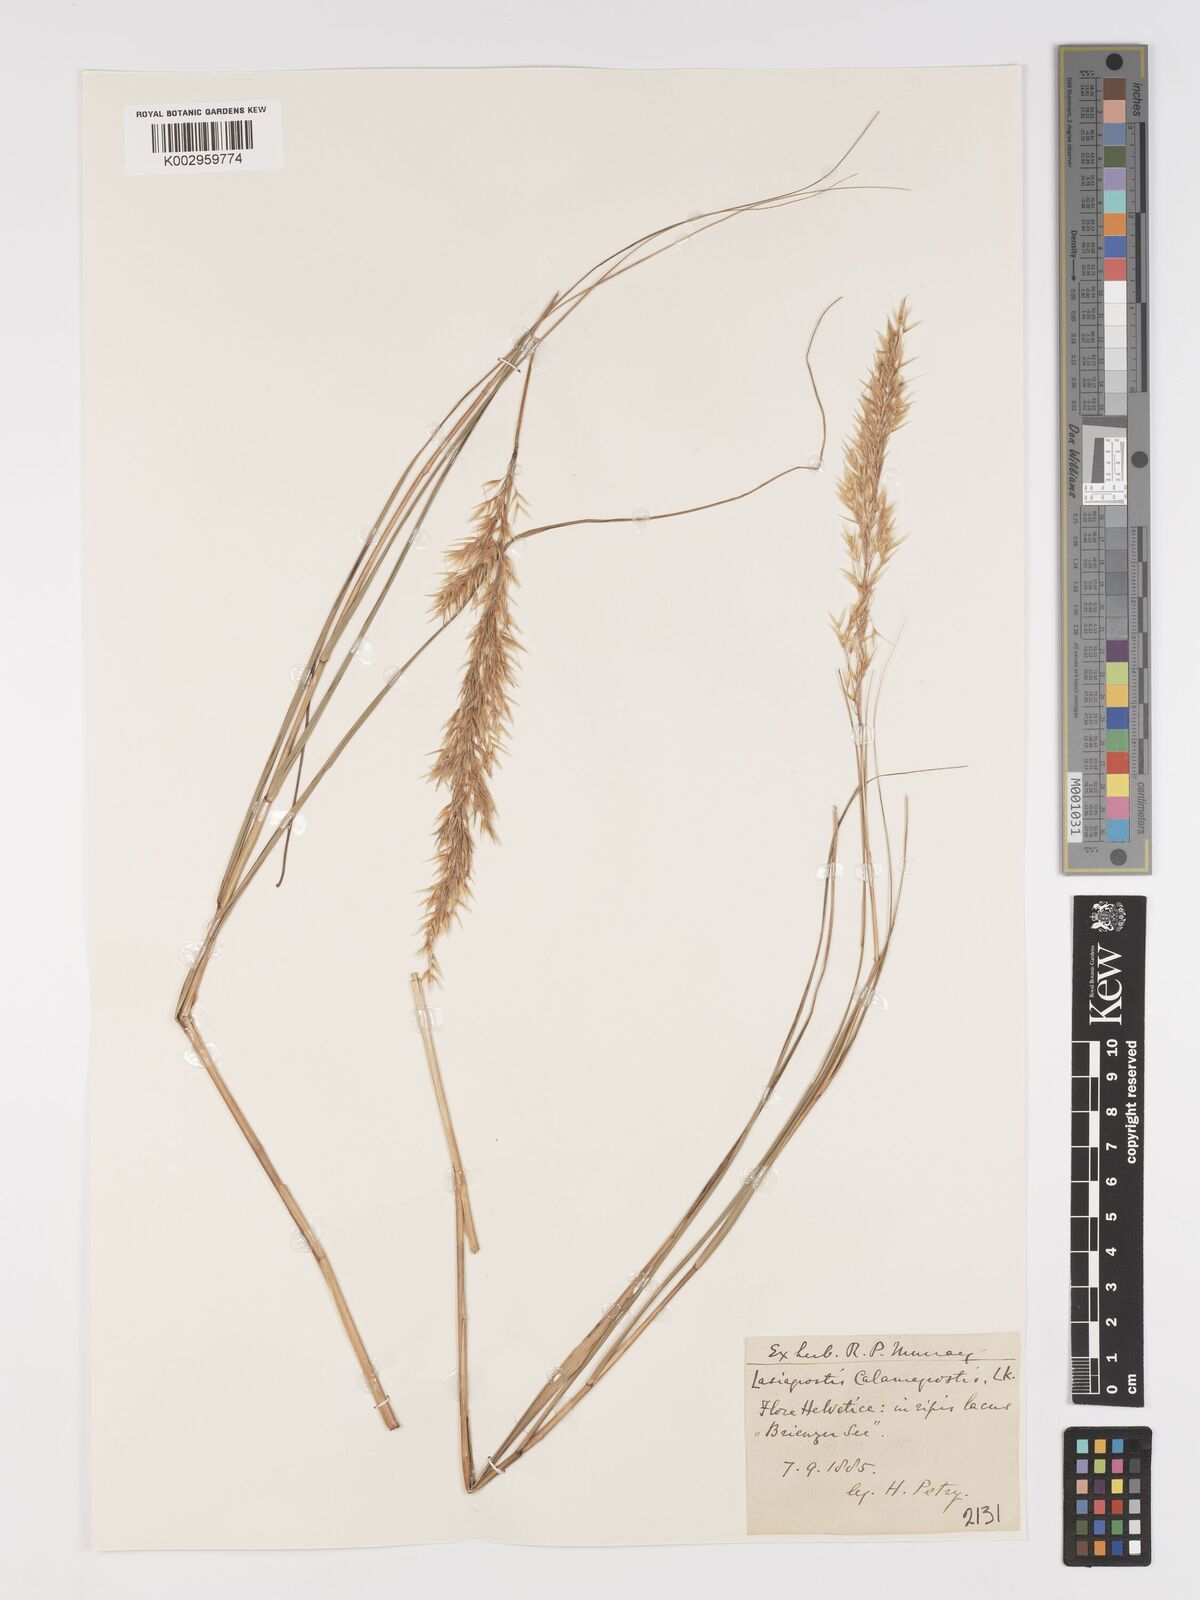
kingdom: Plantae
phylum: Tracheophyta
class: Liliopsida
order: Poales
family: Poaceae
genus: Achnatherum
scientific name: Achnatherum calamagrostis
